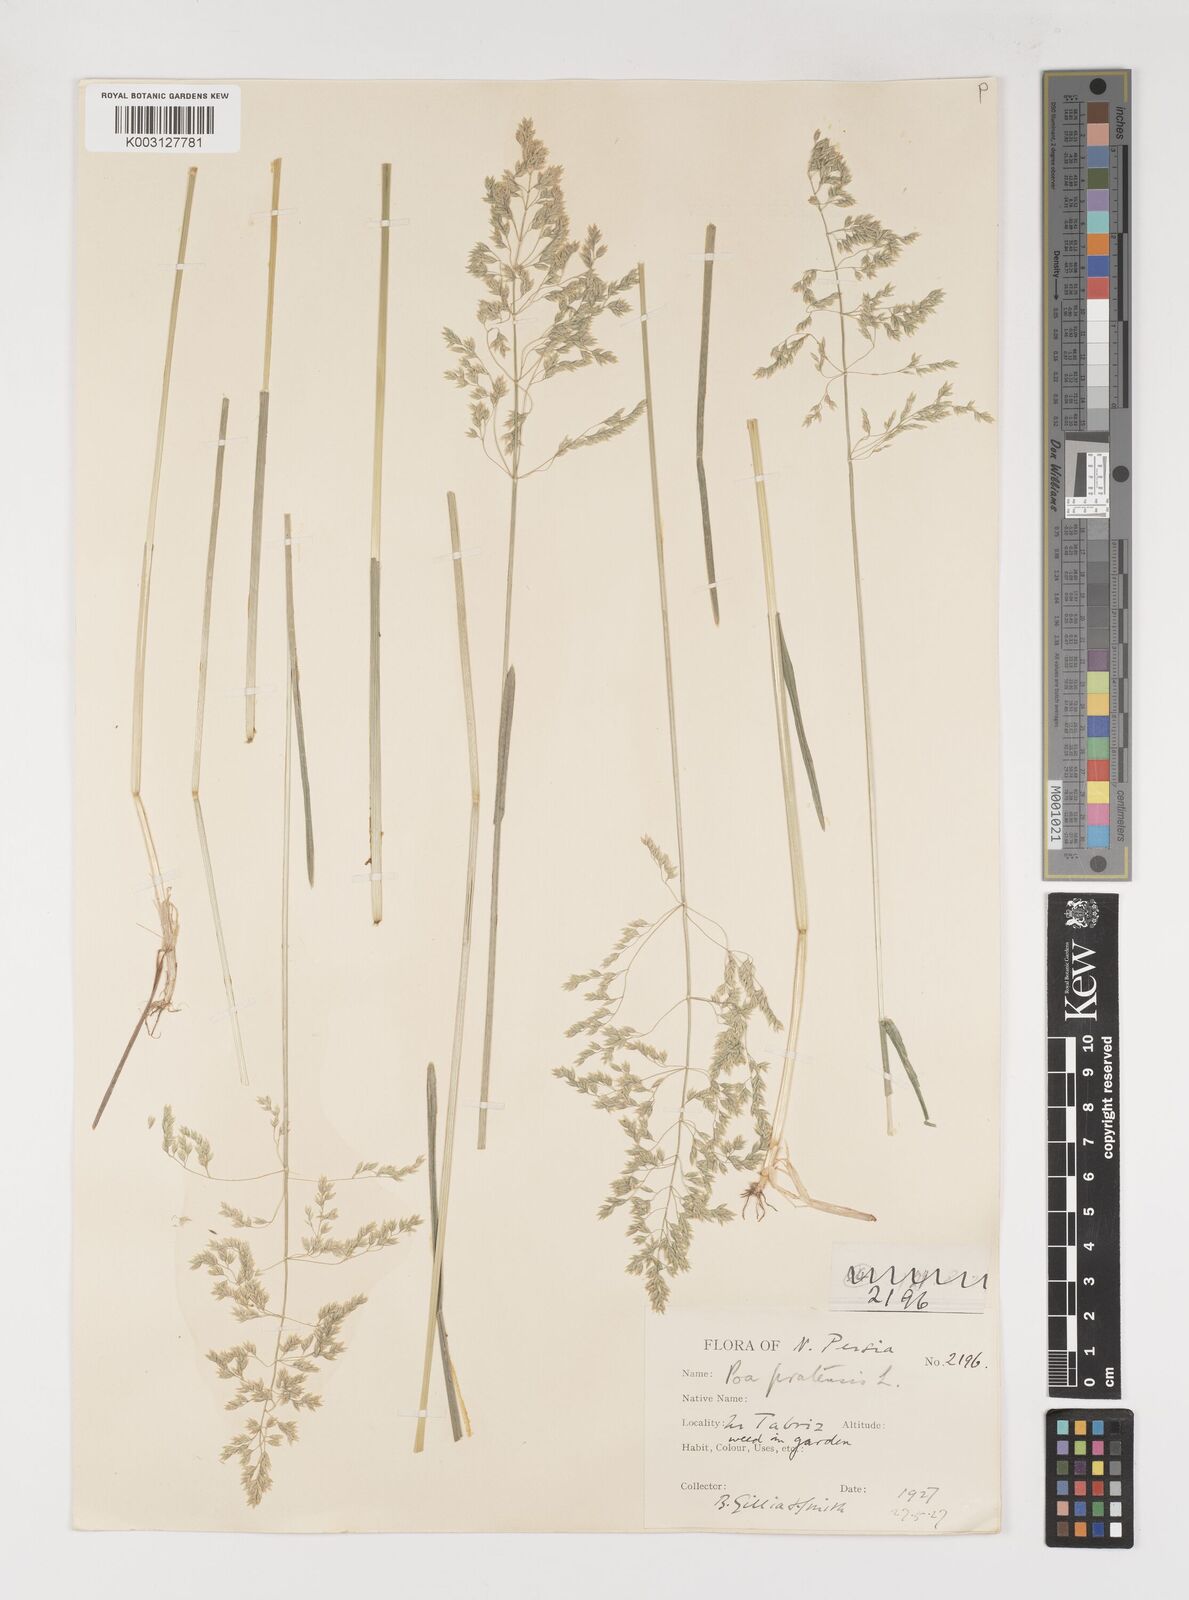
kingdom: Plantae
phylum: Tracheophyta
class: Liliopsida
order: Poales
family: Poaceae
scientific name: Poaceae
